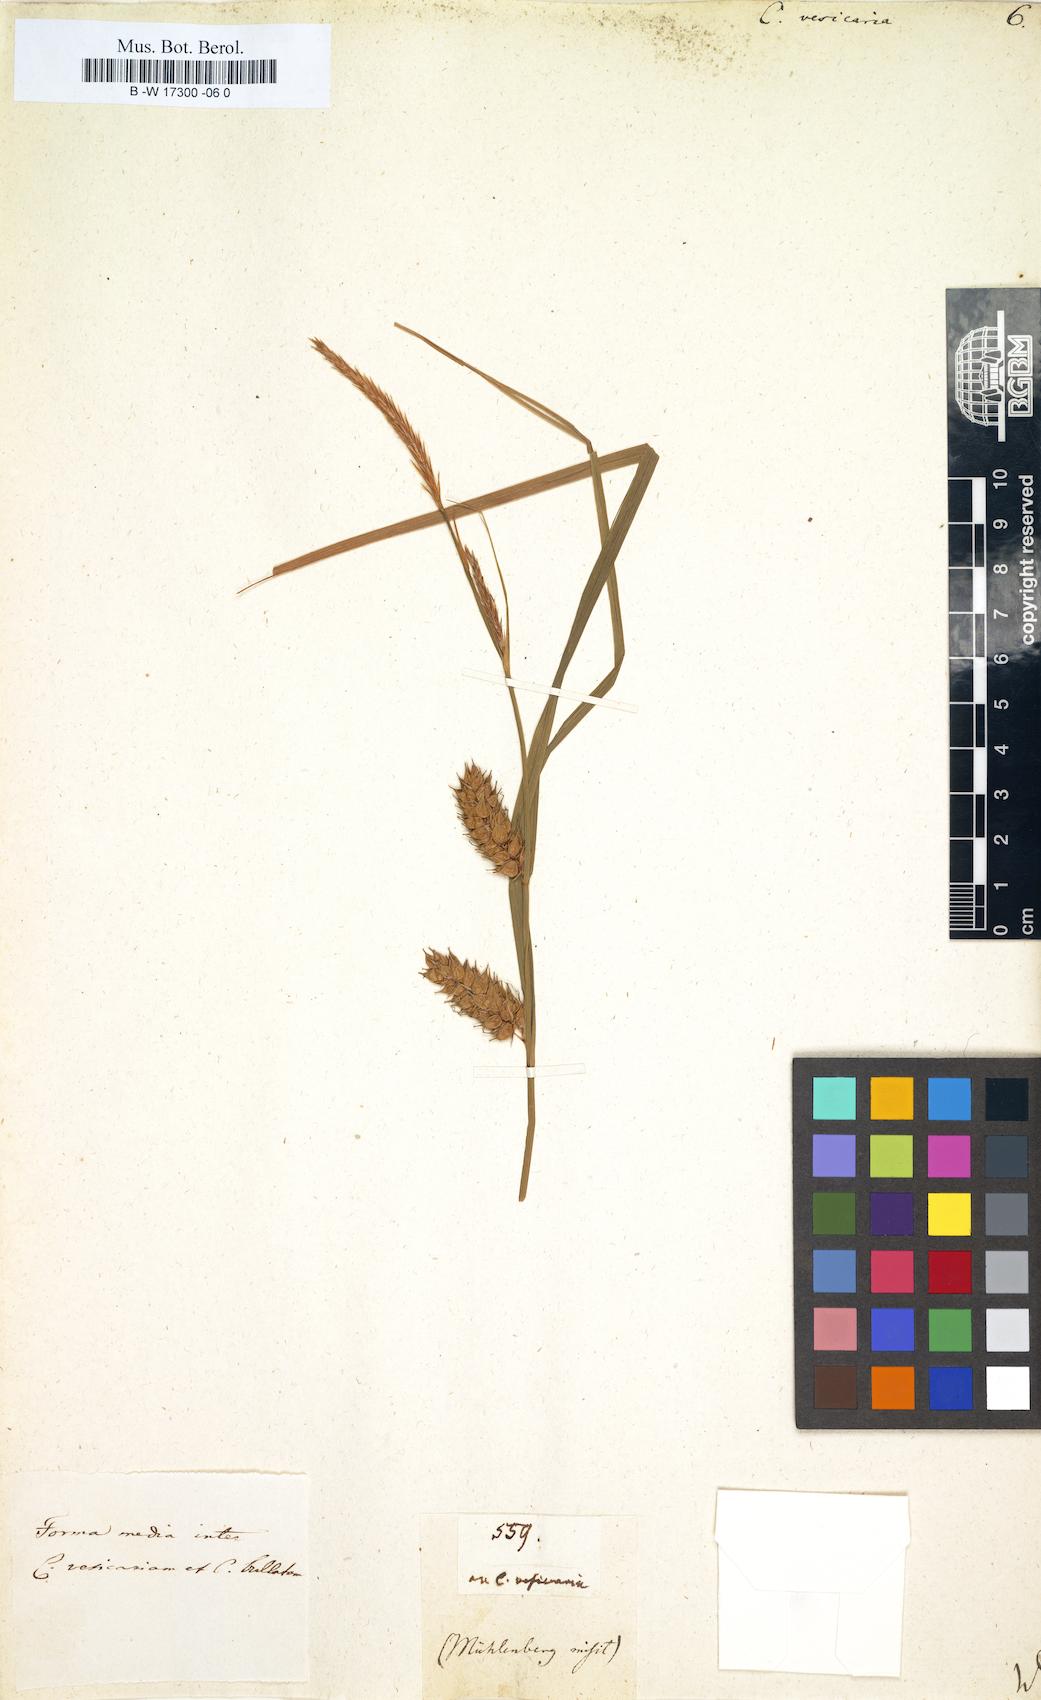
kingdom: Plantae
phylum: Tracheophyta
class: Liliopsida
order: Poales
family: Cyperaceae
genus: Carex
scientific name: Carex vesicaria
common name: Bladder-sedge
